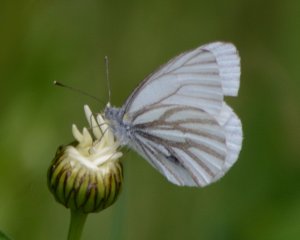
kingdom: Animalia
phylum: Arthropoda
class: Insecta
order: Lepidoptera
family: Pieridae
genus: Pieris
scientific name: Pieris oleracea
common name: Mustard White
